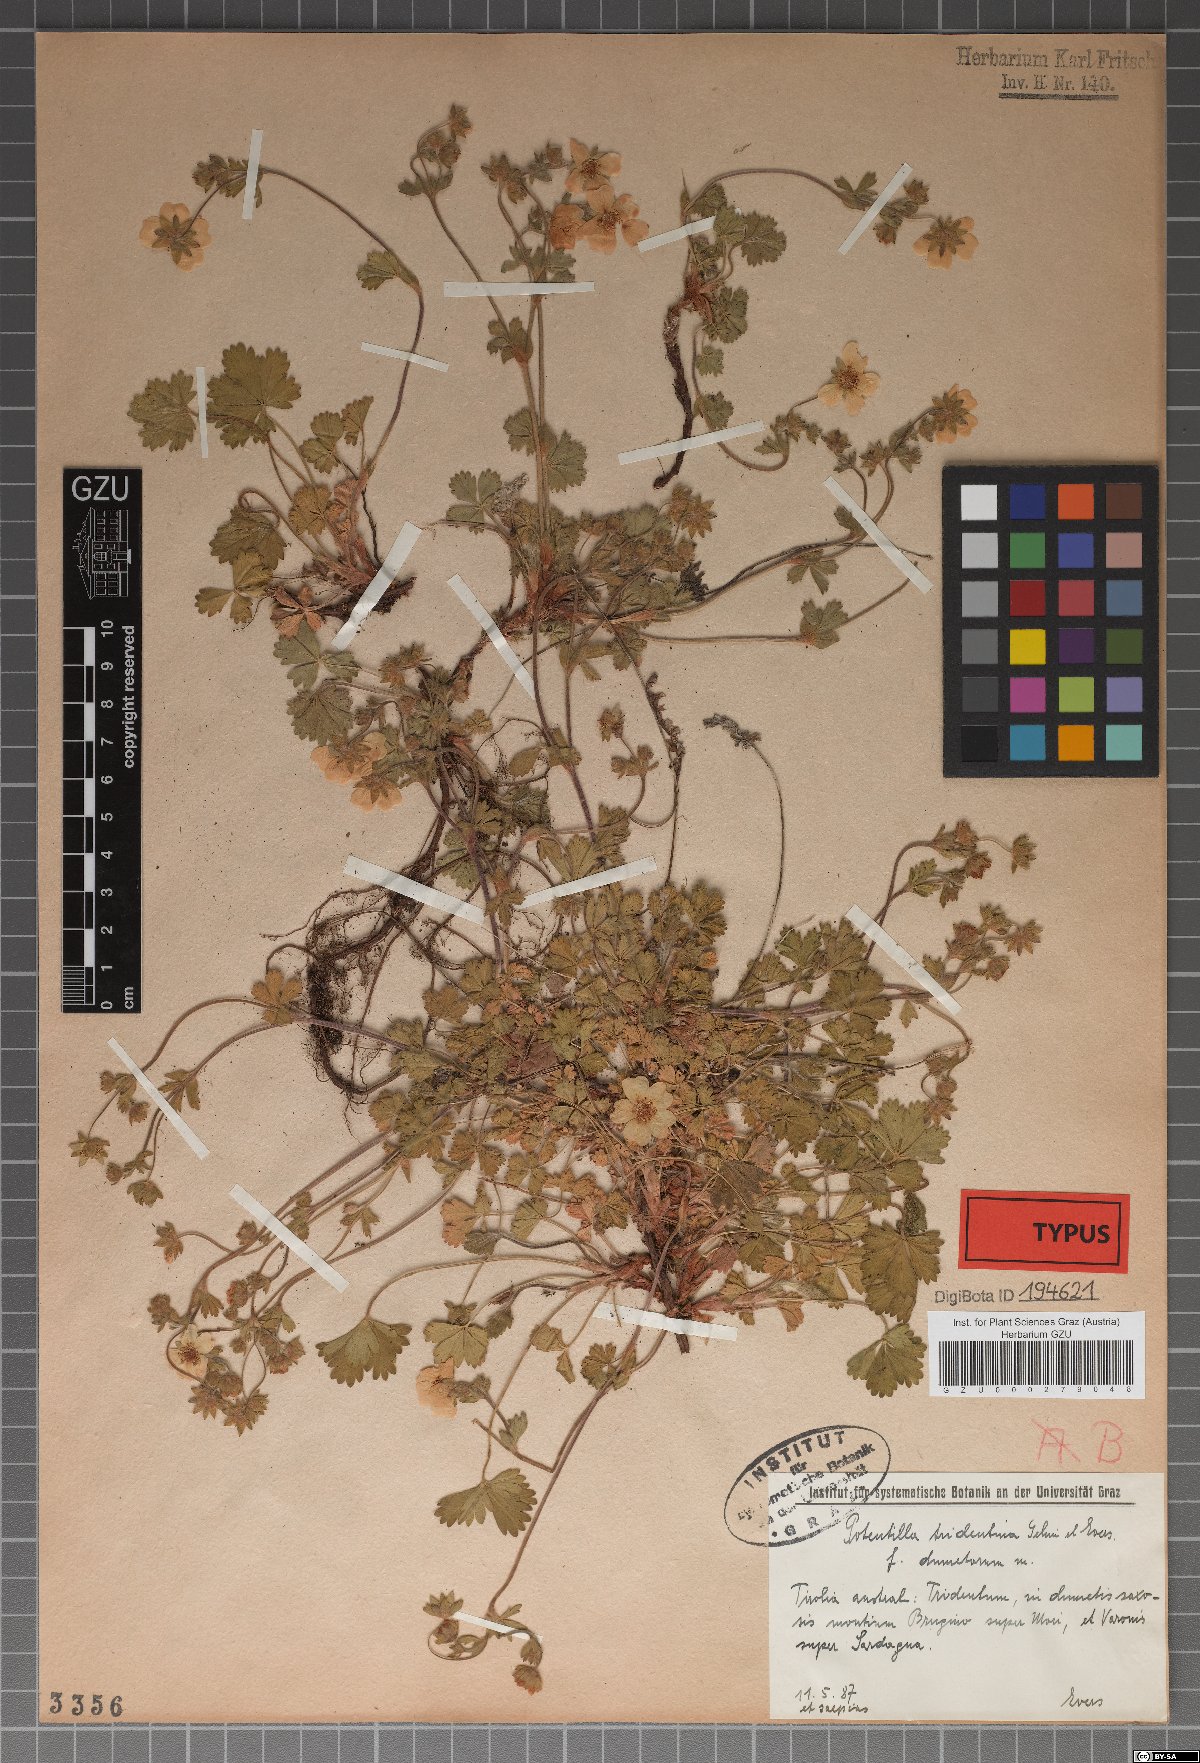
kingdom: Plantae
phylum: Tracheophyta
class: Magnoliopsida
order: Rosales
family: Rosaceae
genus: Potentilla
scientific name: Potentilla crantzii
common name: Alpine cinquefoil
